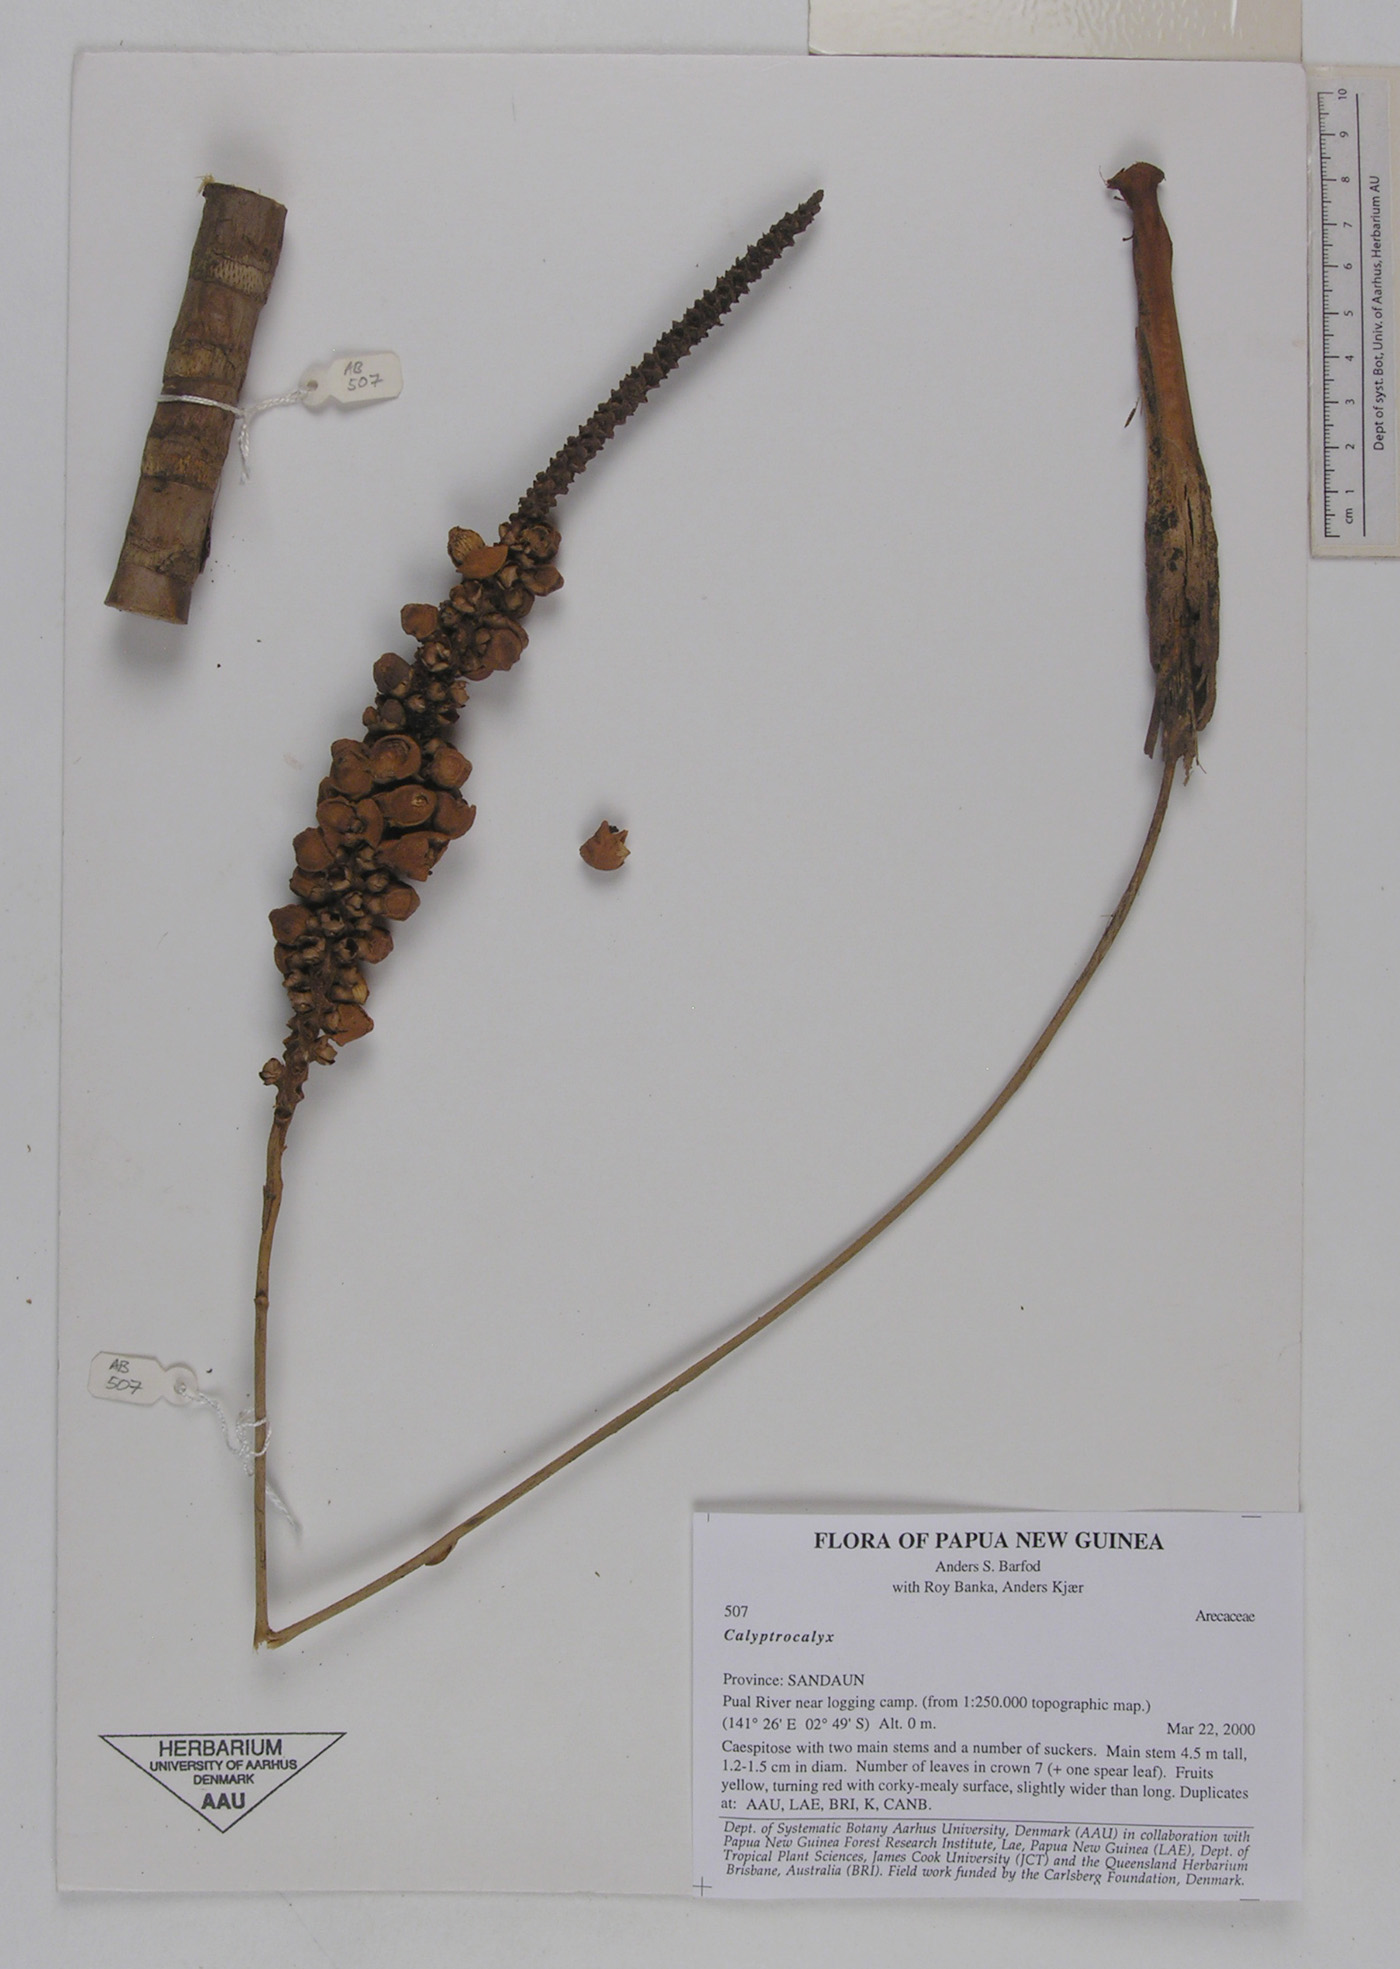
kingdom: Plantae
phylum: Tracheophyta
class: Liliopsida
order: Arecales
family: Arecaceae
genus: Calyptrocalyx
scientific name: Calyptrocalyx
